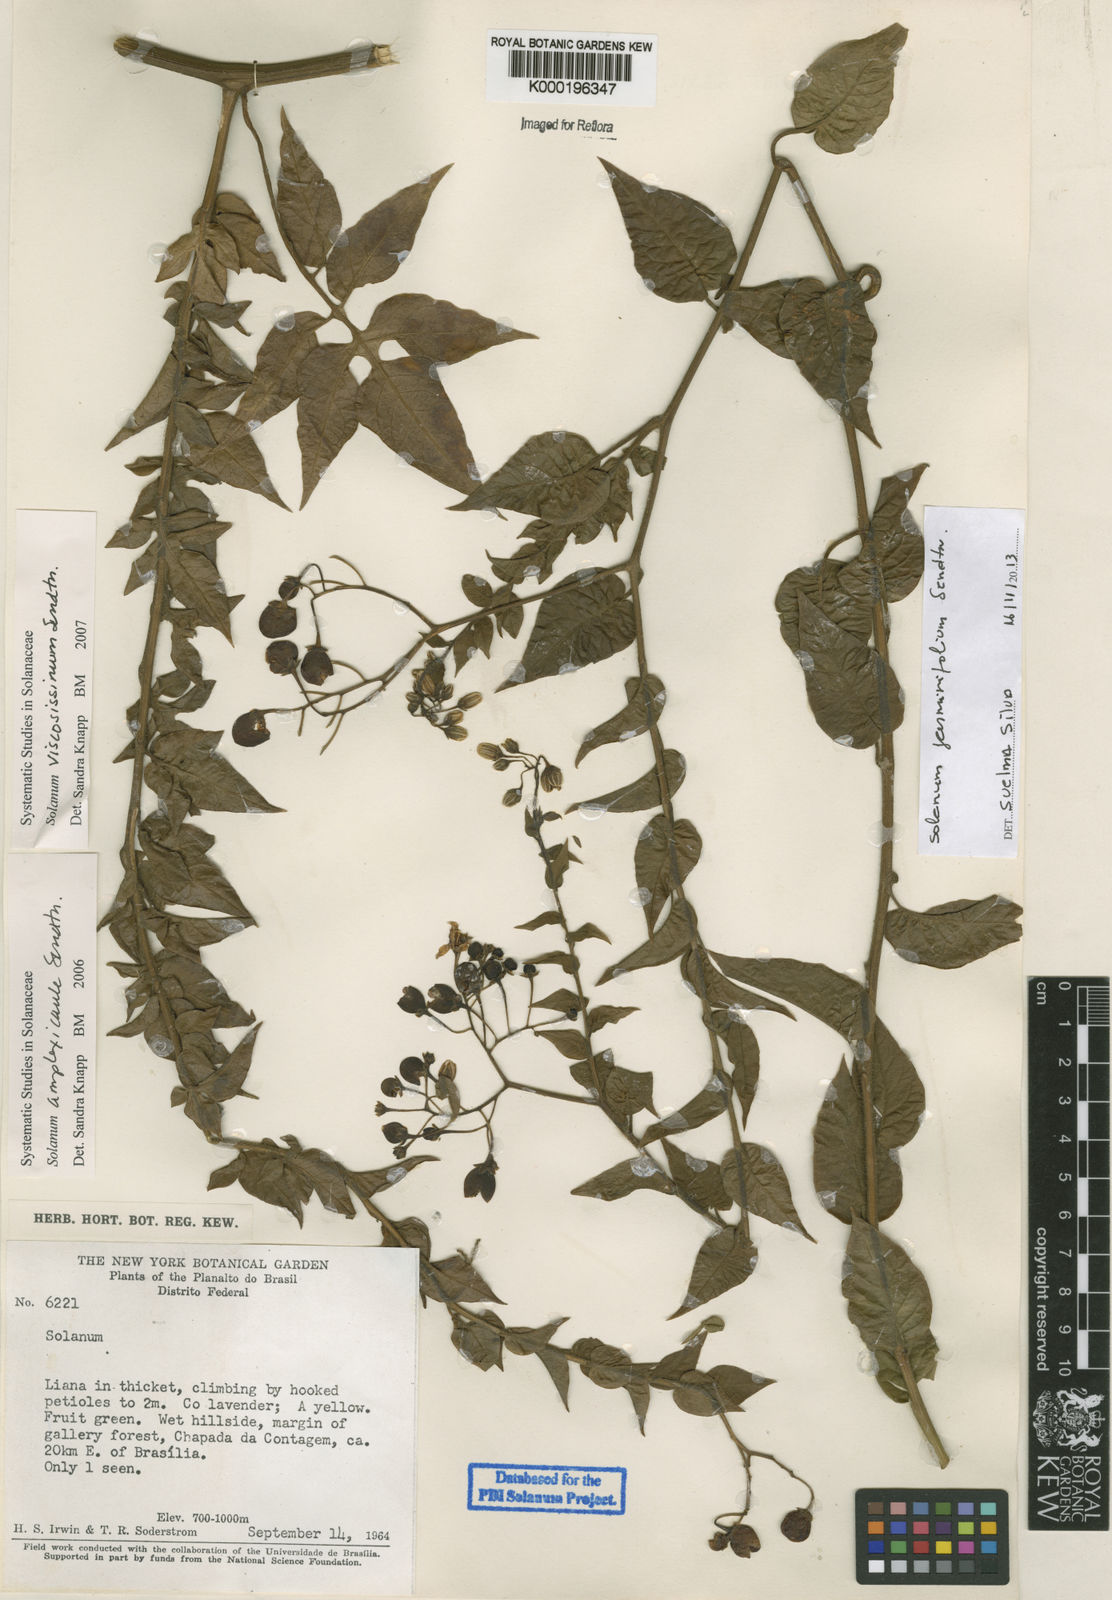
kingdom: Plantae
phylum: Tracheophyta
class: Magnoliopsida
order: Solanales
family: Solanaceae
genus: Solanum
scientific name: Solanum viscosissimum
